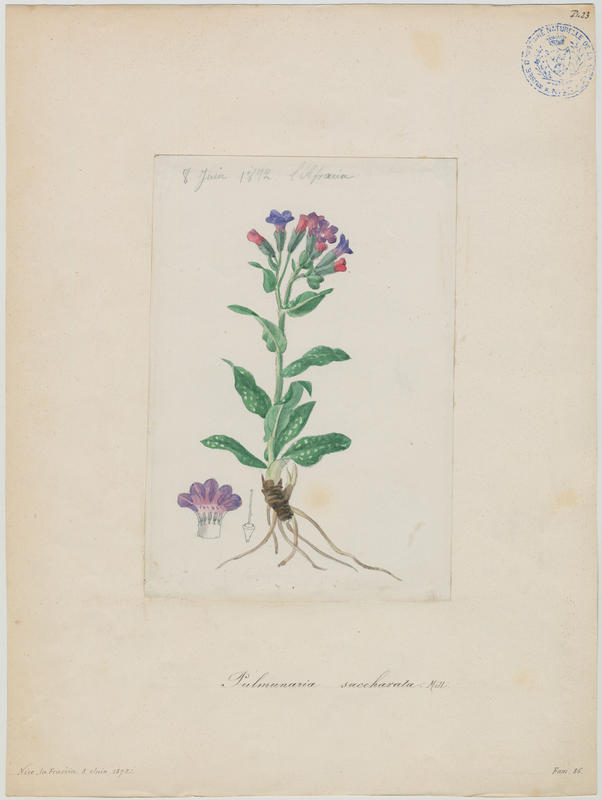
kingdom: Plantae
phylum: Tracheophyta
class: Magnoliopsida
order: Boraginales
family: Boraginaceae
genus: Pulmonaria
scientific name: Pulmonaria saccharata
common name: Bethlehem lungwort
